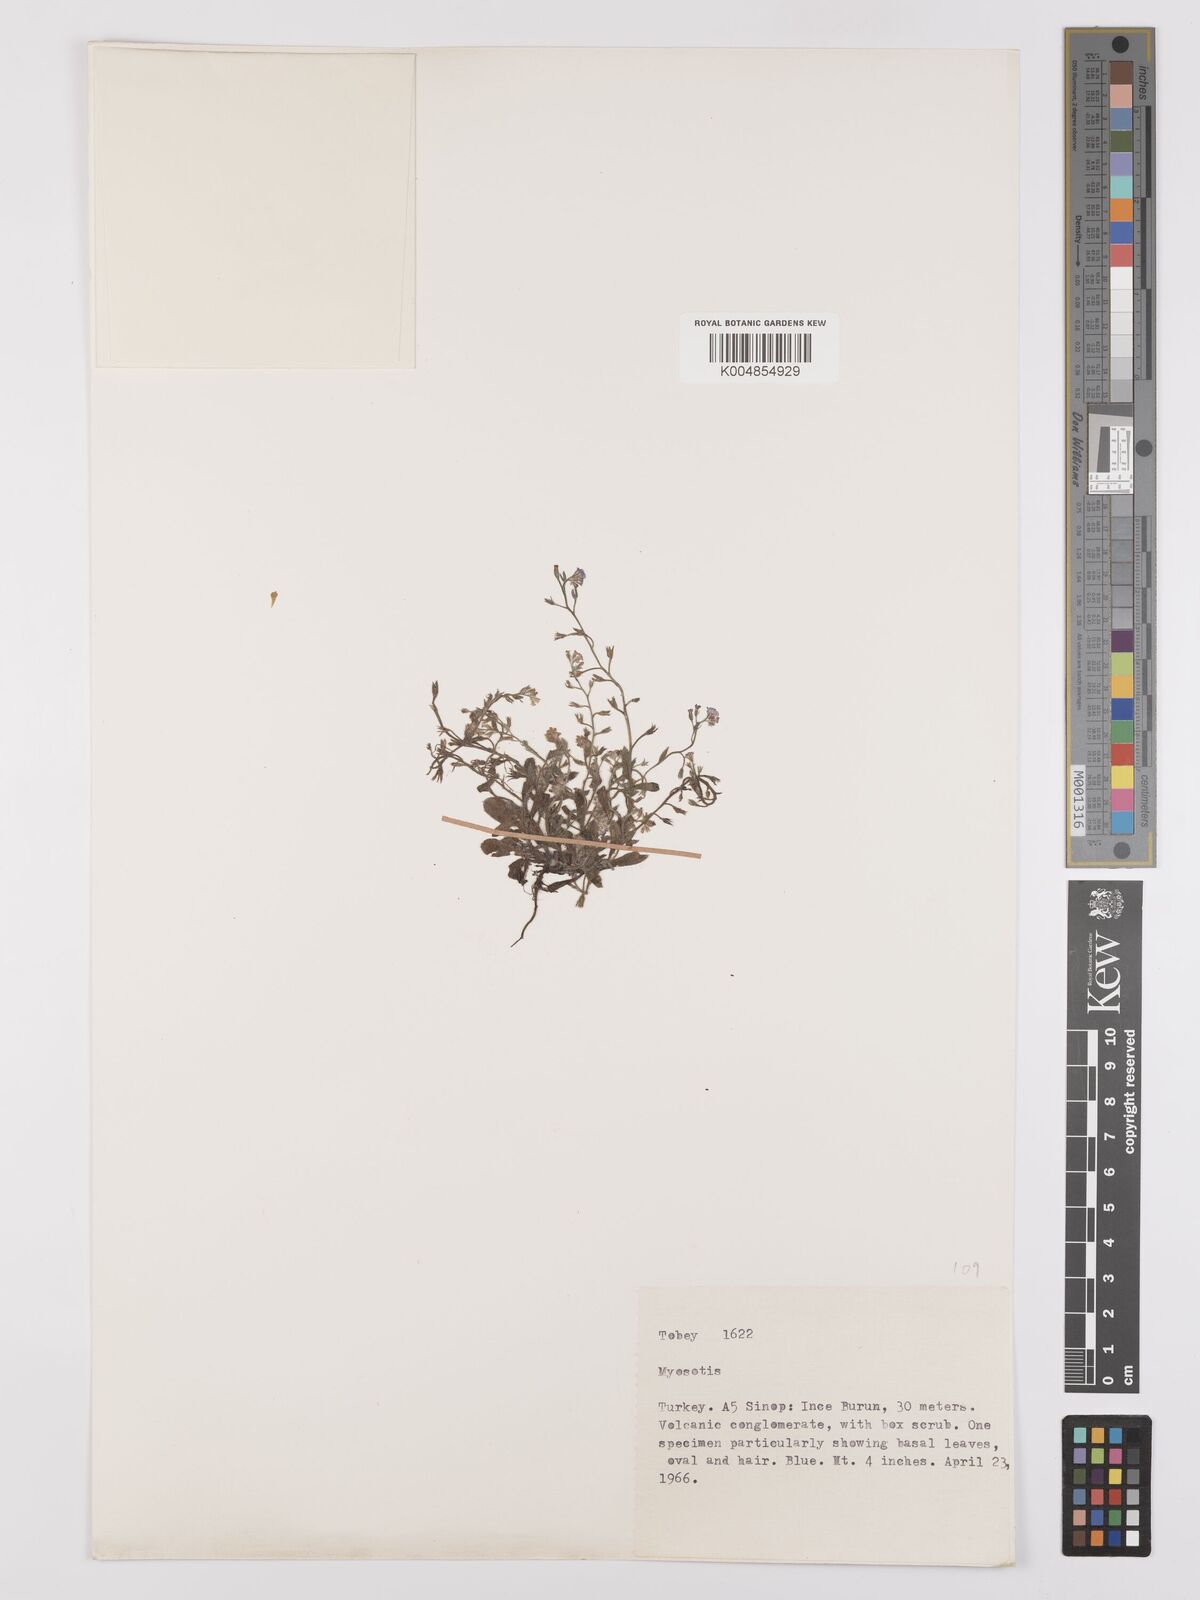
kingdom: Plantae
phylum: Tracheophyta
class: Magnoliopsida
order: Boraginales
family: Boraginaceae
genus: Myosotis
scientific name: Myosotis
